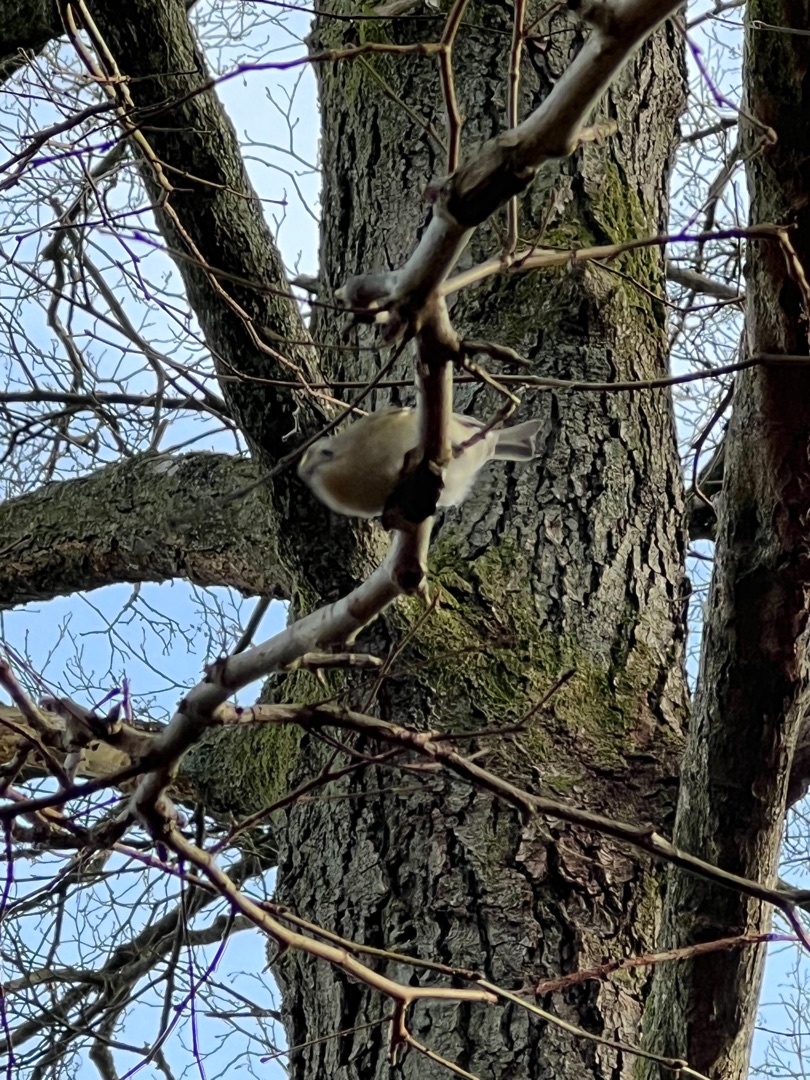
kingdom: Animalia
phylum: Chordata
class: Aves
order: Passeriformes
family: Regulidae
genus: Regulus
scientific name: Regulus regulus
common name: Fuglekonge
